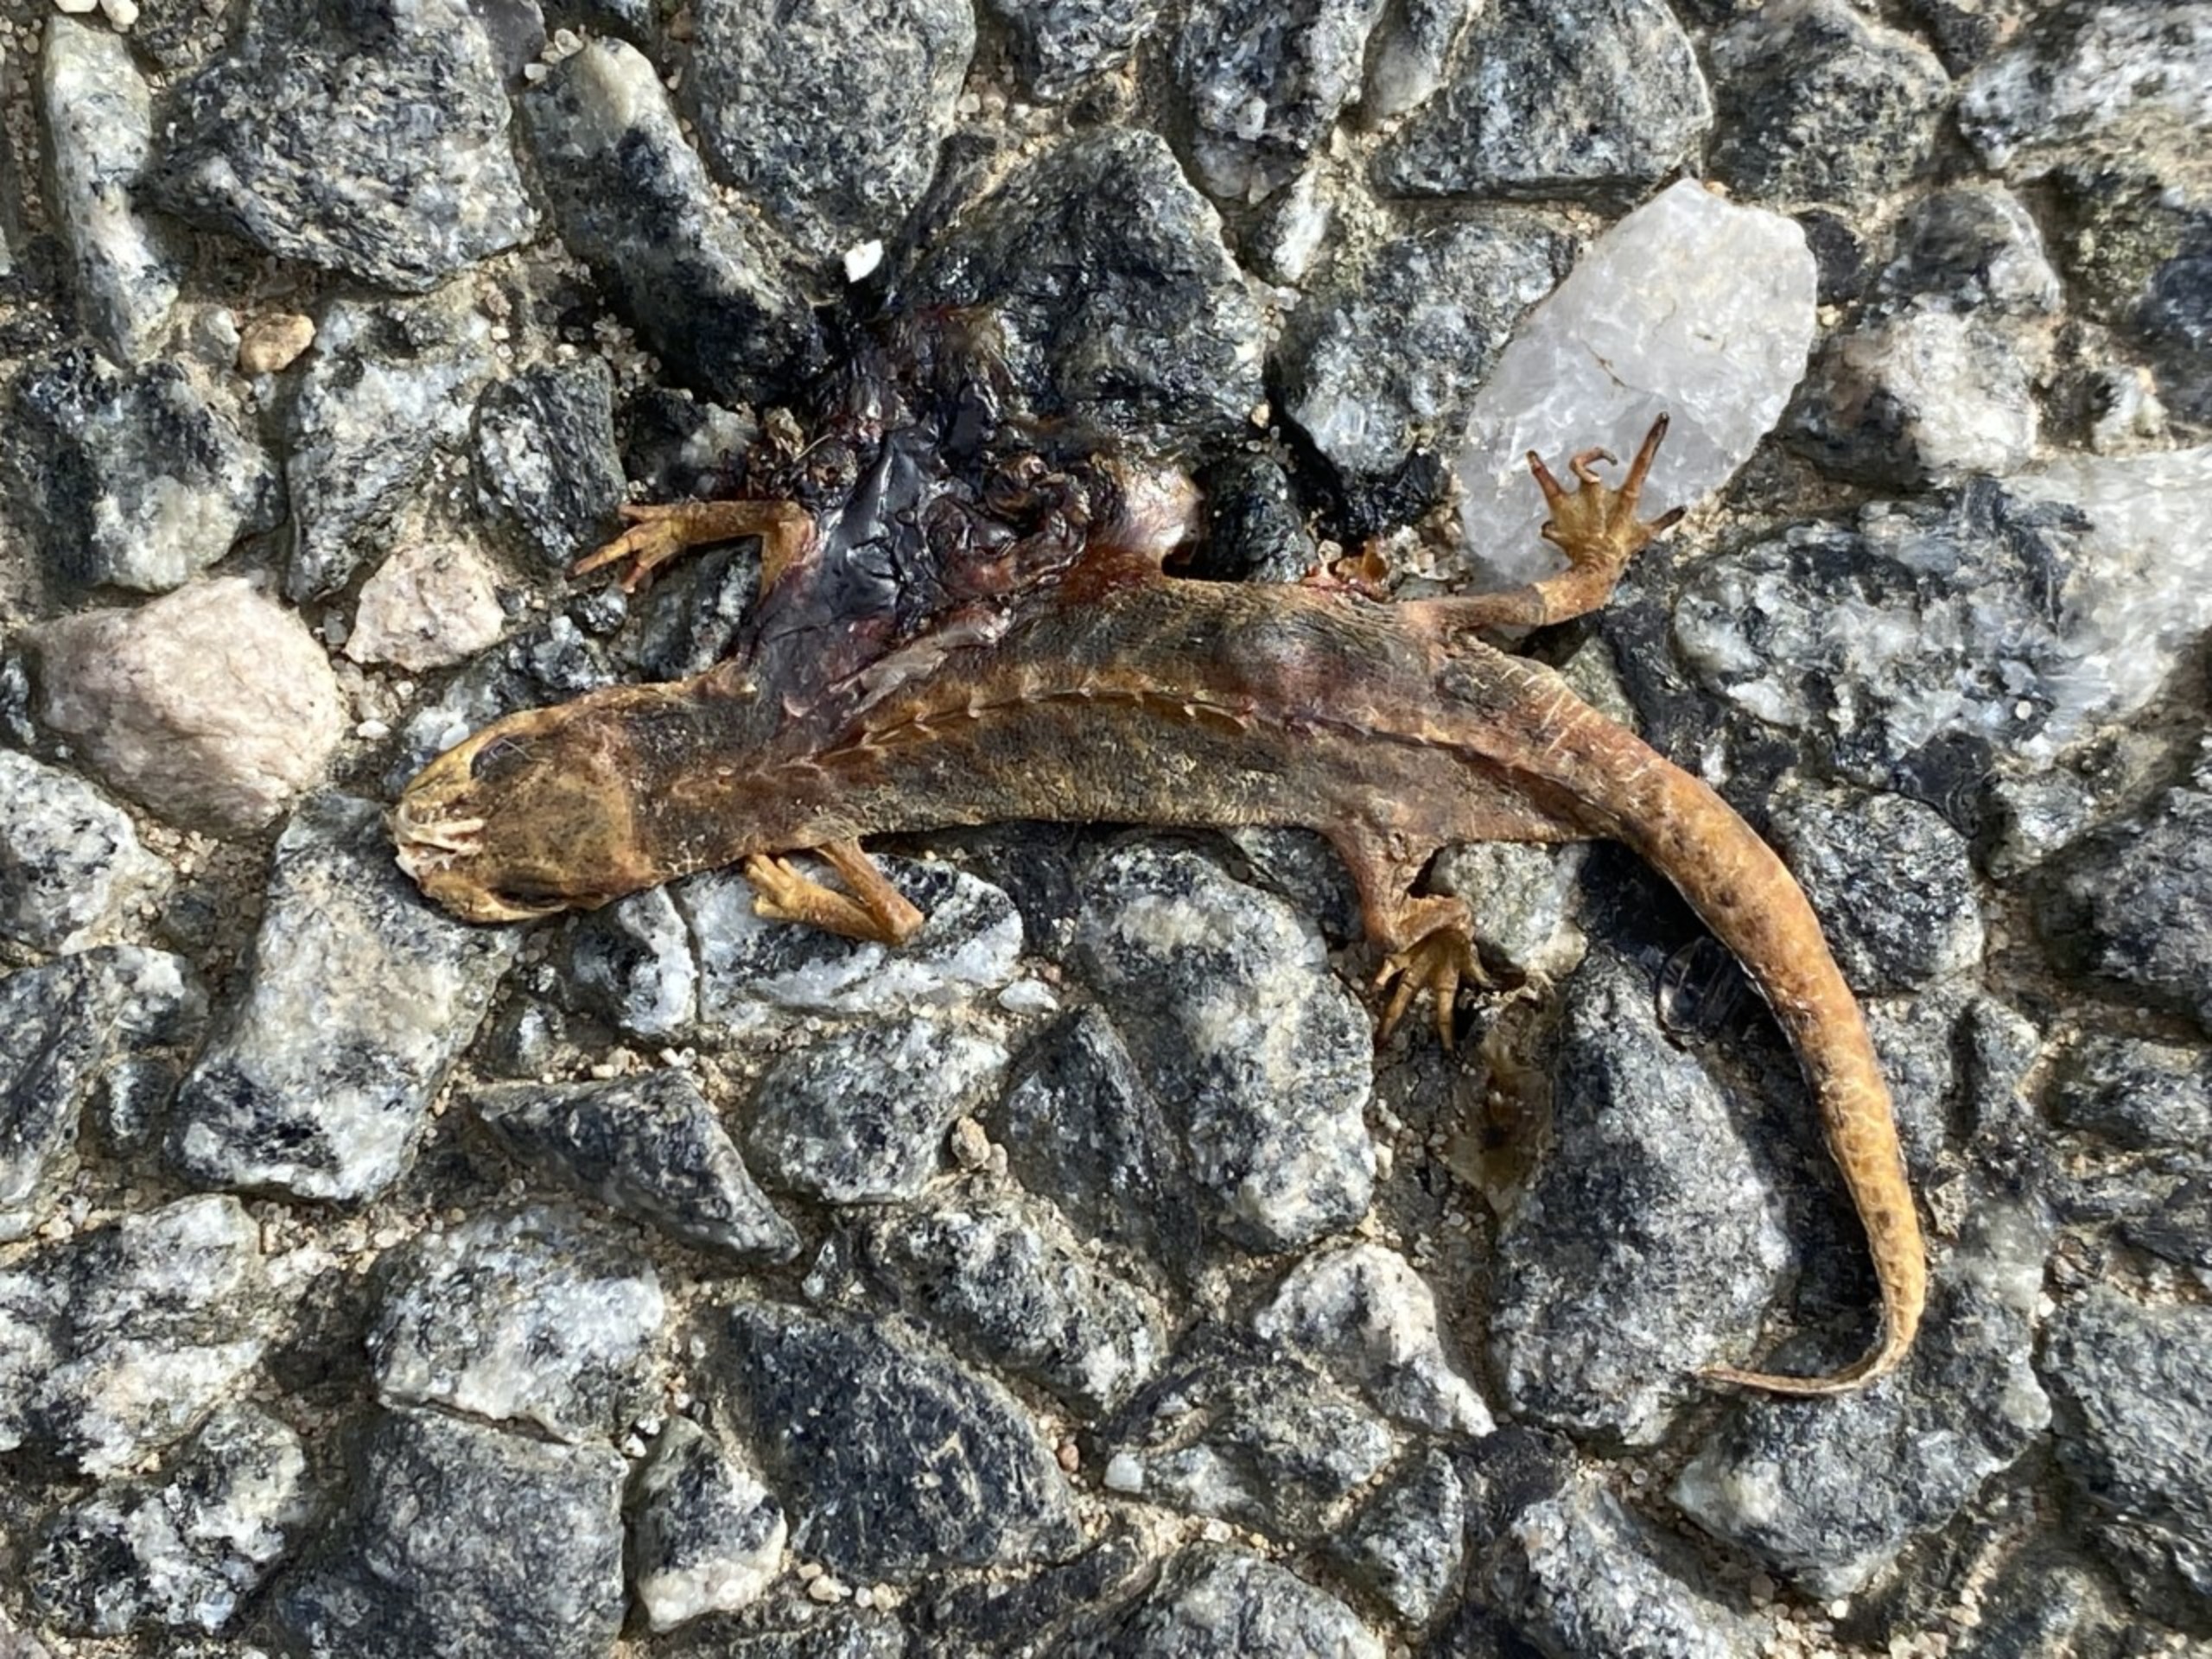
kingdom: Animalia
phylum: Chordata
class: Amphibia
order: Caudata
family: Salamandridae
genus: Lissotriton
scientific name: Lissotriton vulgaris
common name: Lille vandsalamander
